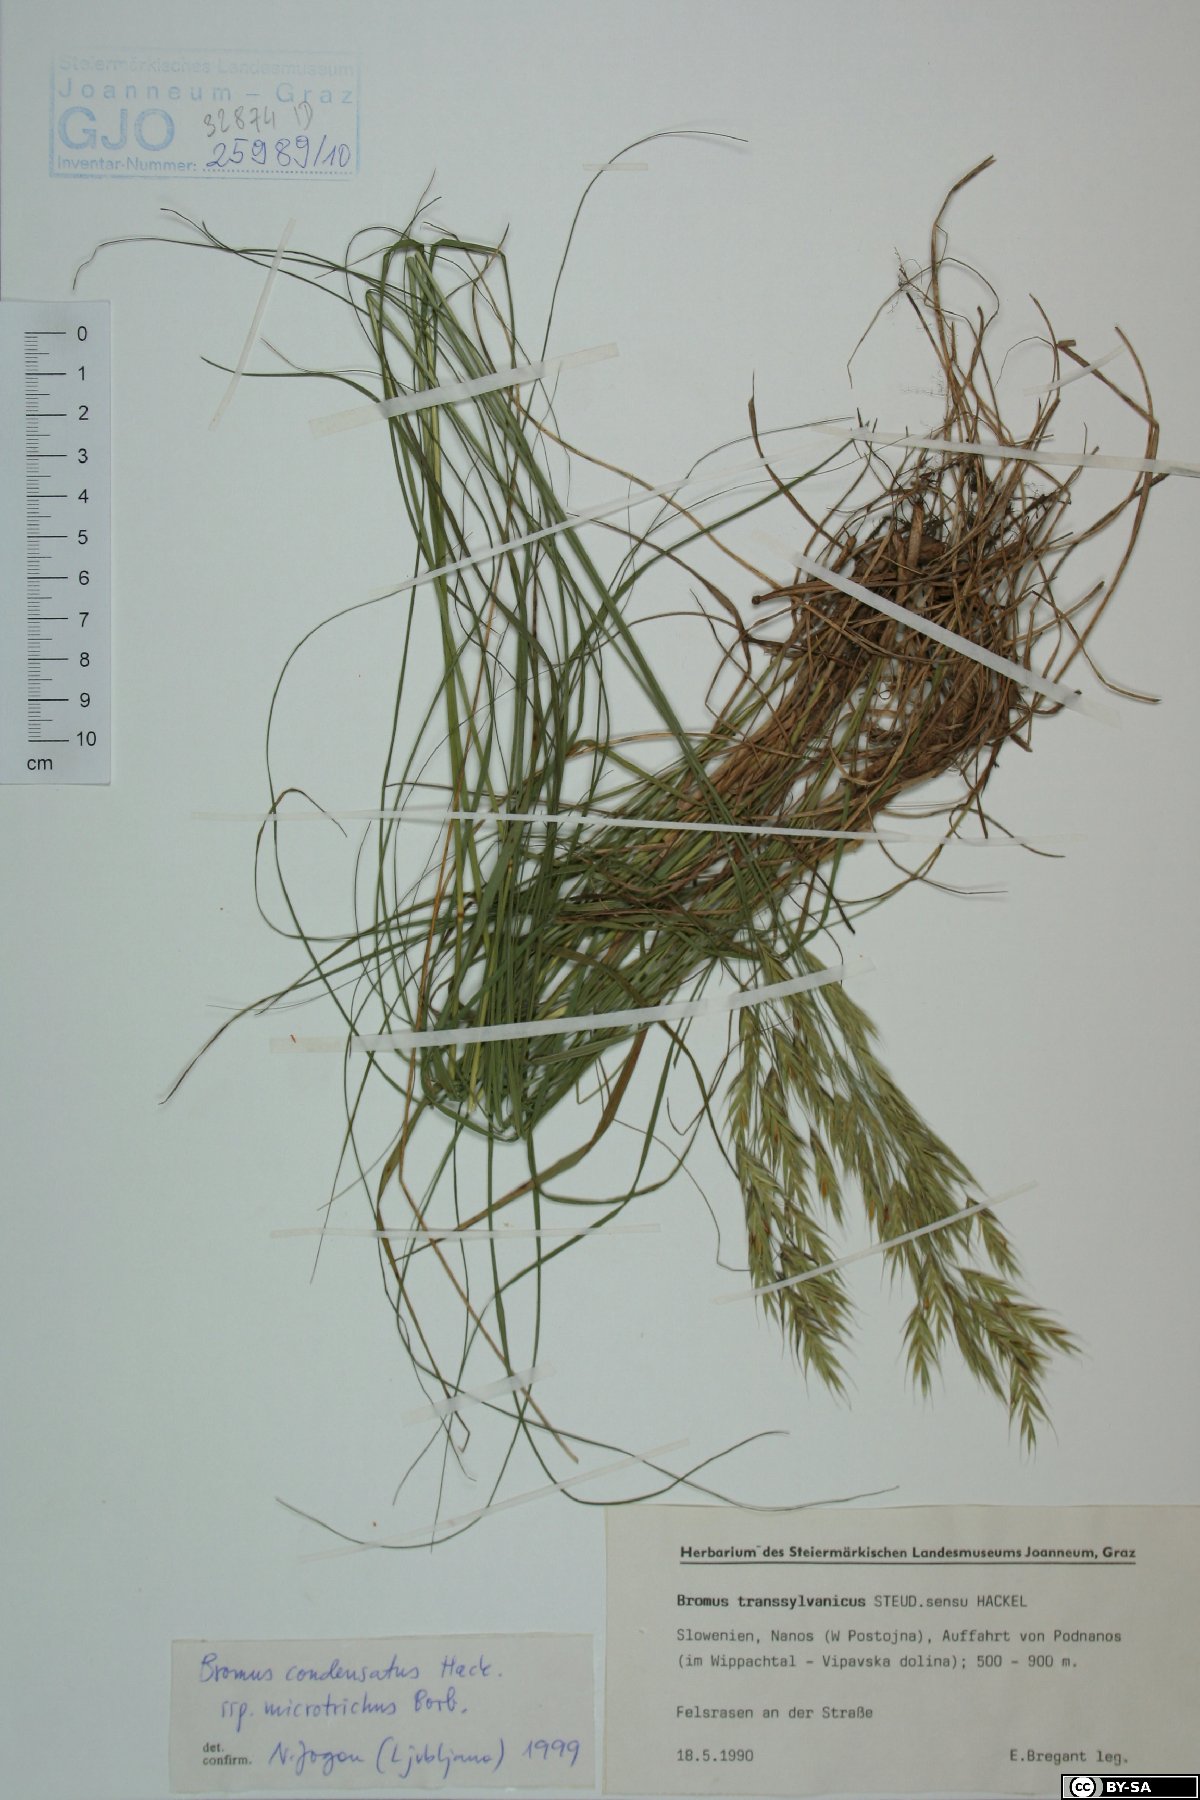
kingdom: Plantae
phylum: Tracheophyta
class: Liliopsida
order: Poales
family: Poaceae
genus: Bromus
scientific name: Bromus condensatus
